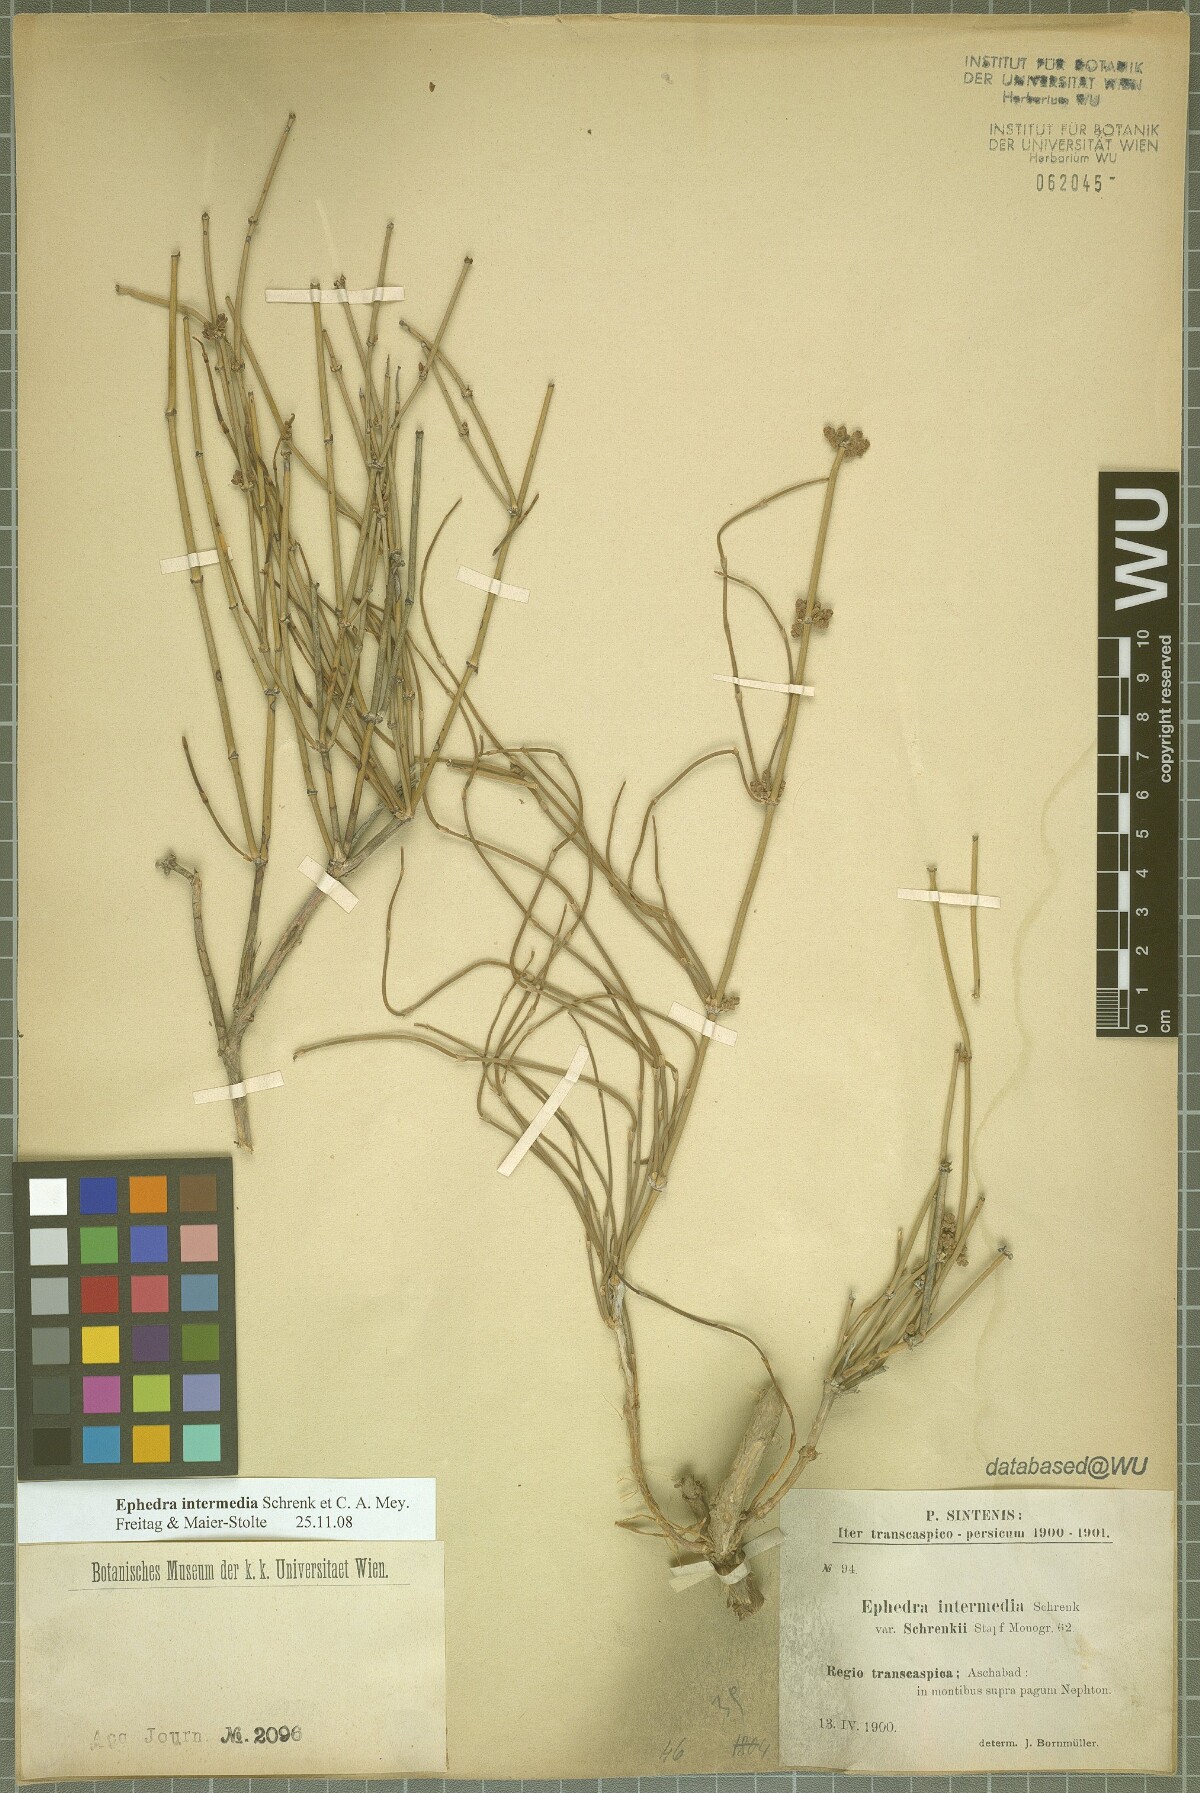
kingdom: Plantae
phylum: Tracheophyta
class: Gnetopsida
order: Ephedrales
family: Ephedraceae
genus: Ephedra
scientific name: Ephedra intermedia
